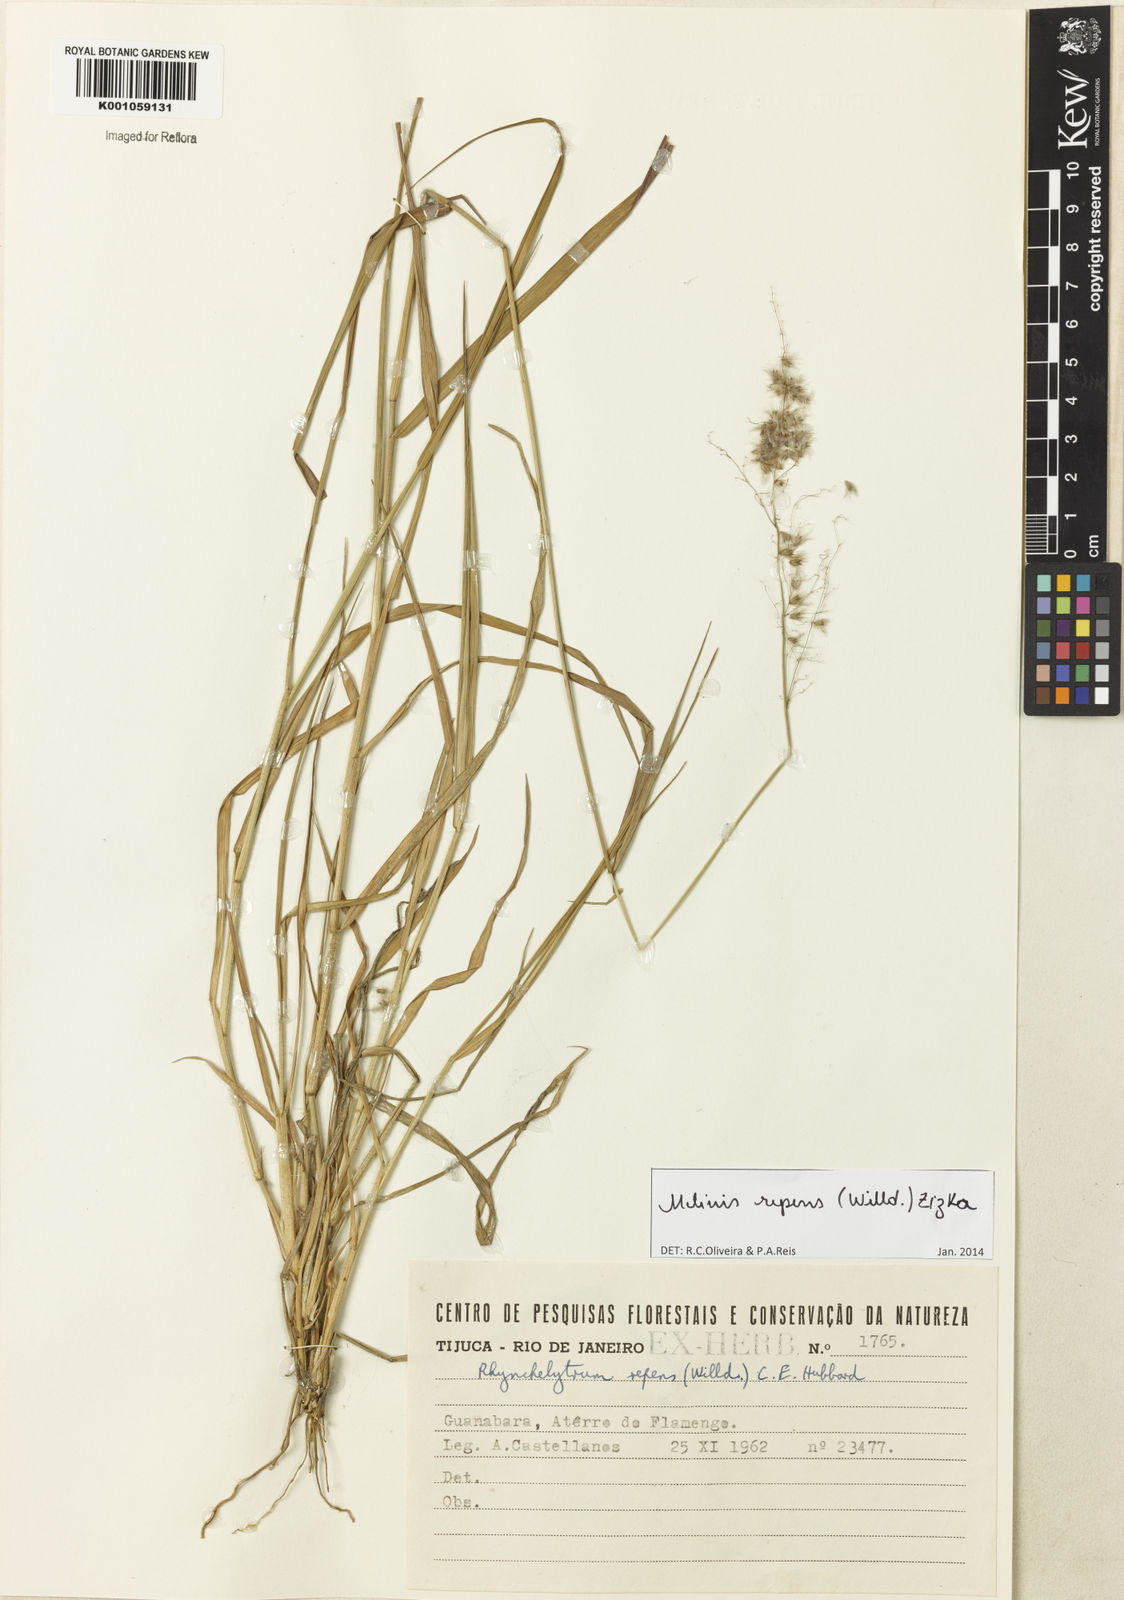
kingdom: Plantae
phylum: Tracheophyta
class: Liliopsida
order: Poales
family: Poaceae
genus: Melinis
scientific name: Melinis repens
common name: Rose natal grass
